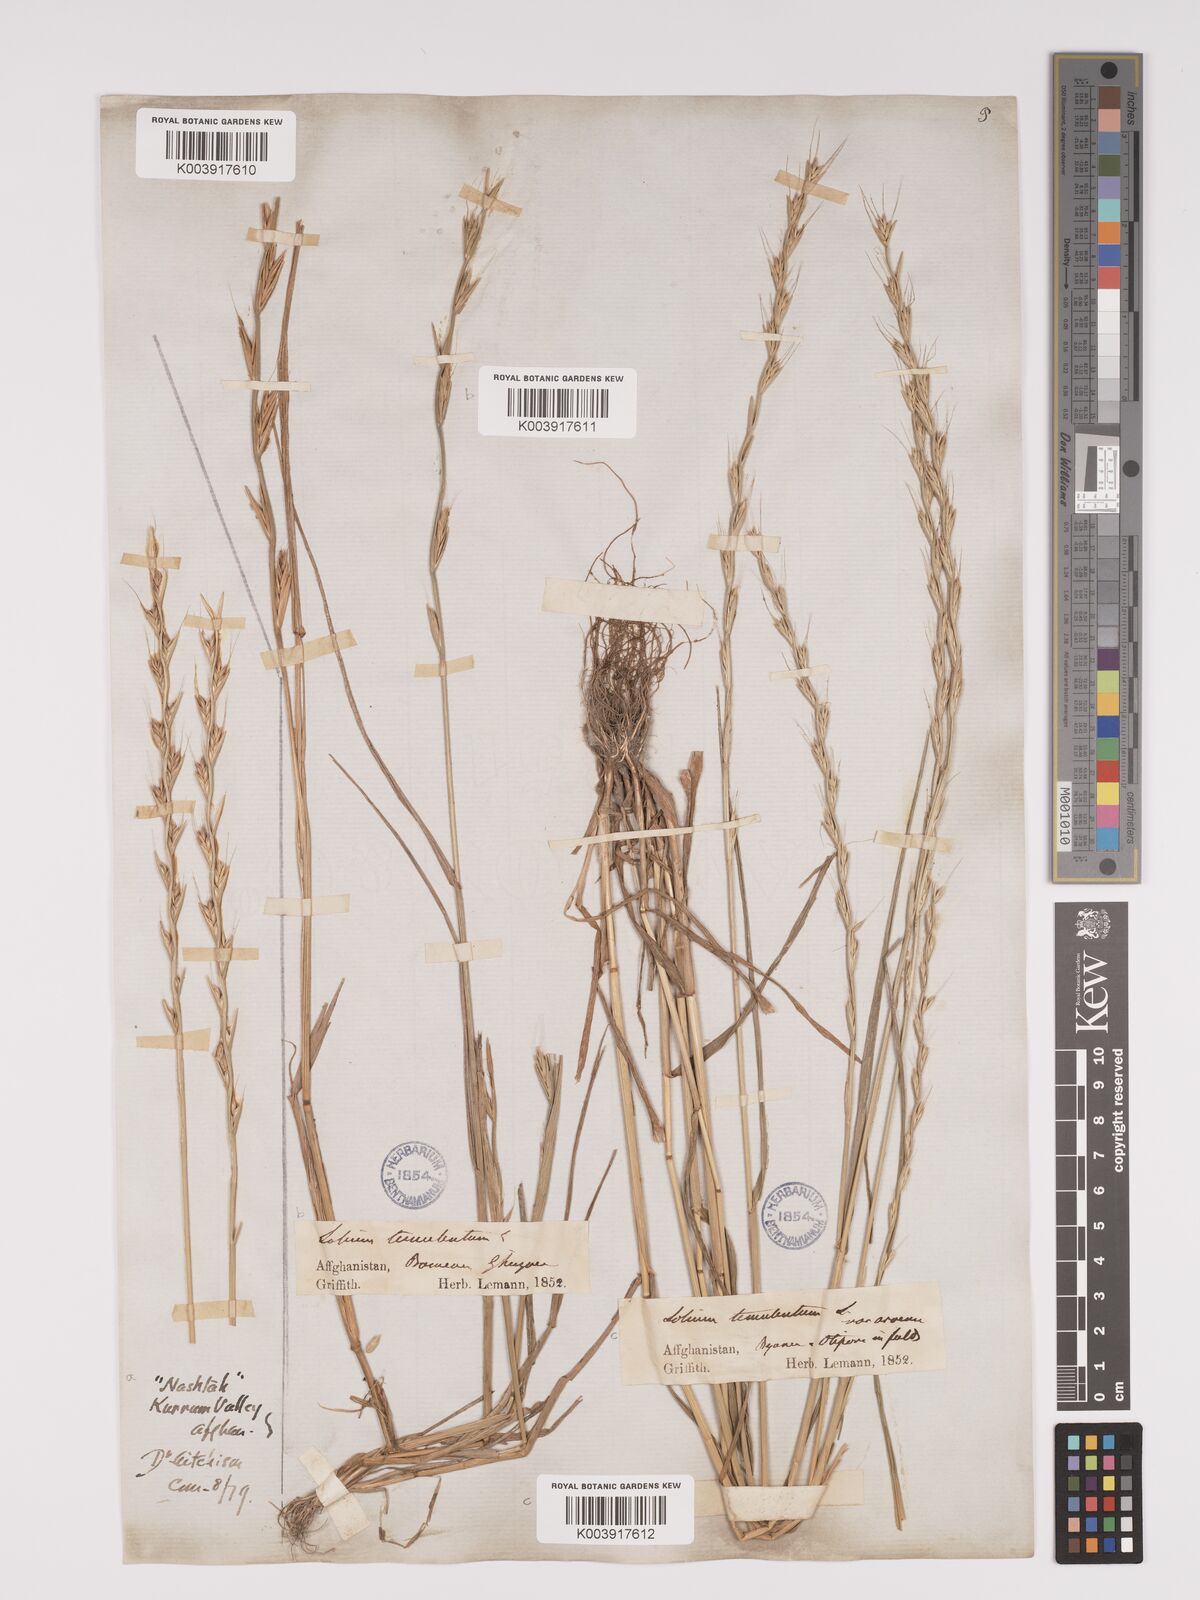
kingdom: Plantae
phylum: Tracheophyta
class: Liliopsida
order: Poales
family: Poaceae
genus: Lolium
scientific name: Lolium temulentum
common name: Darnel
